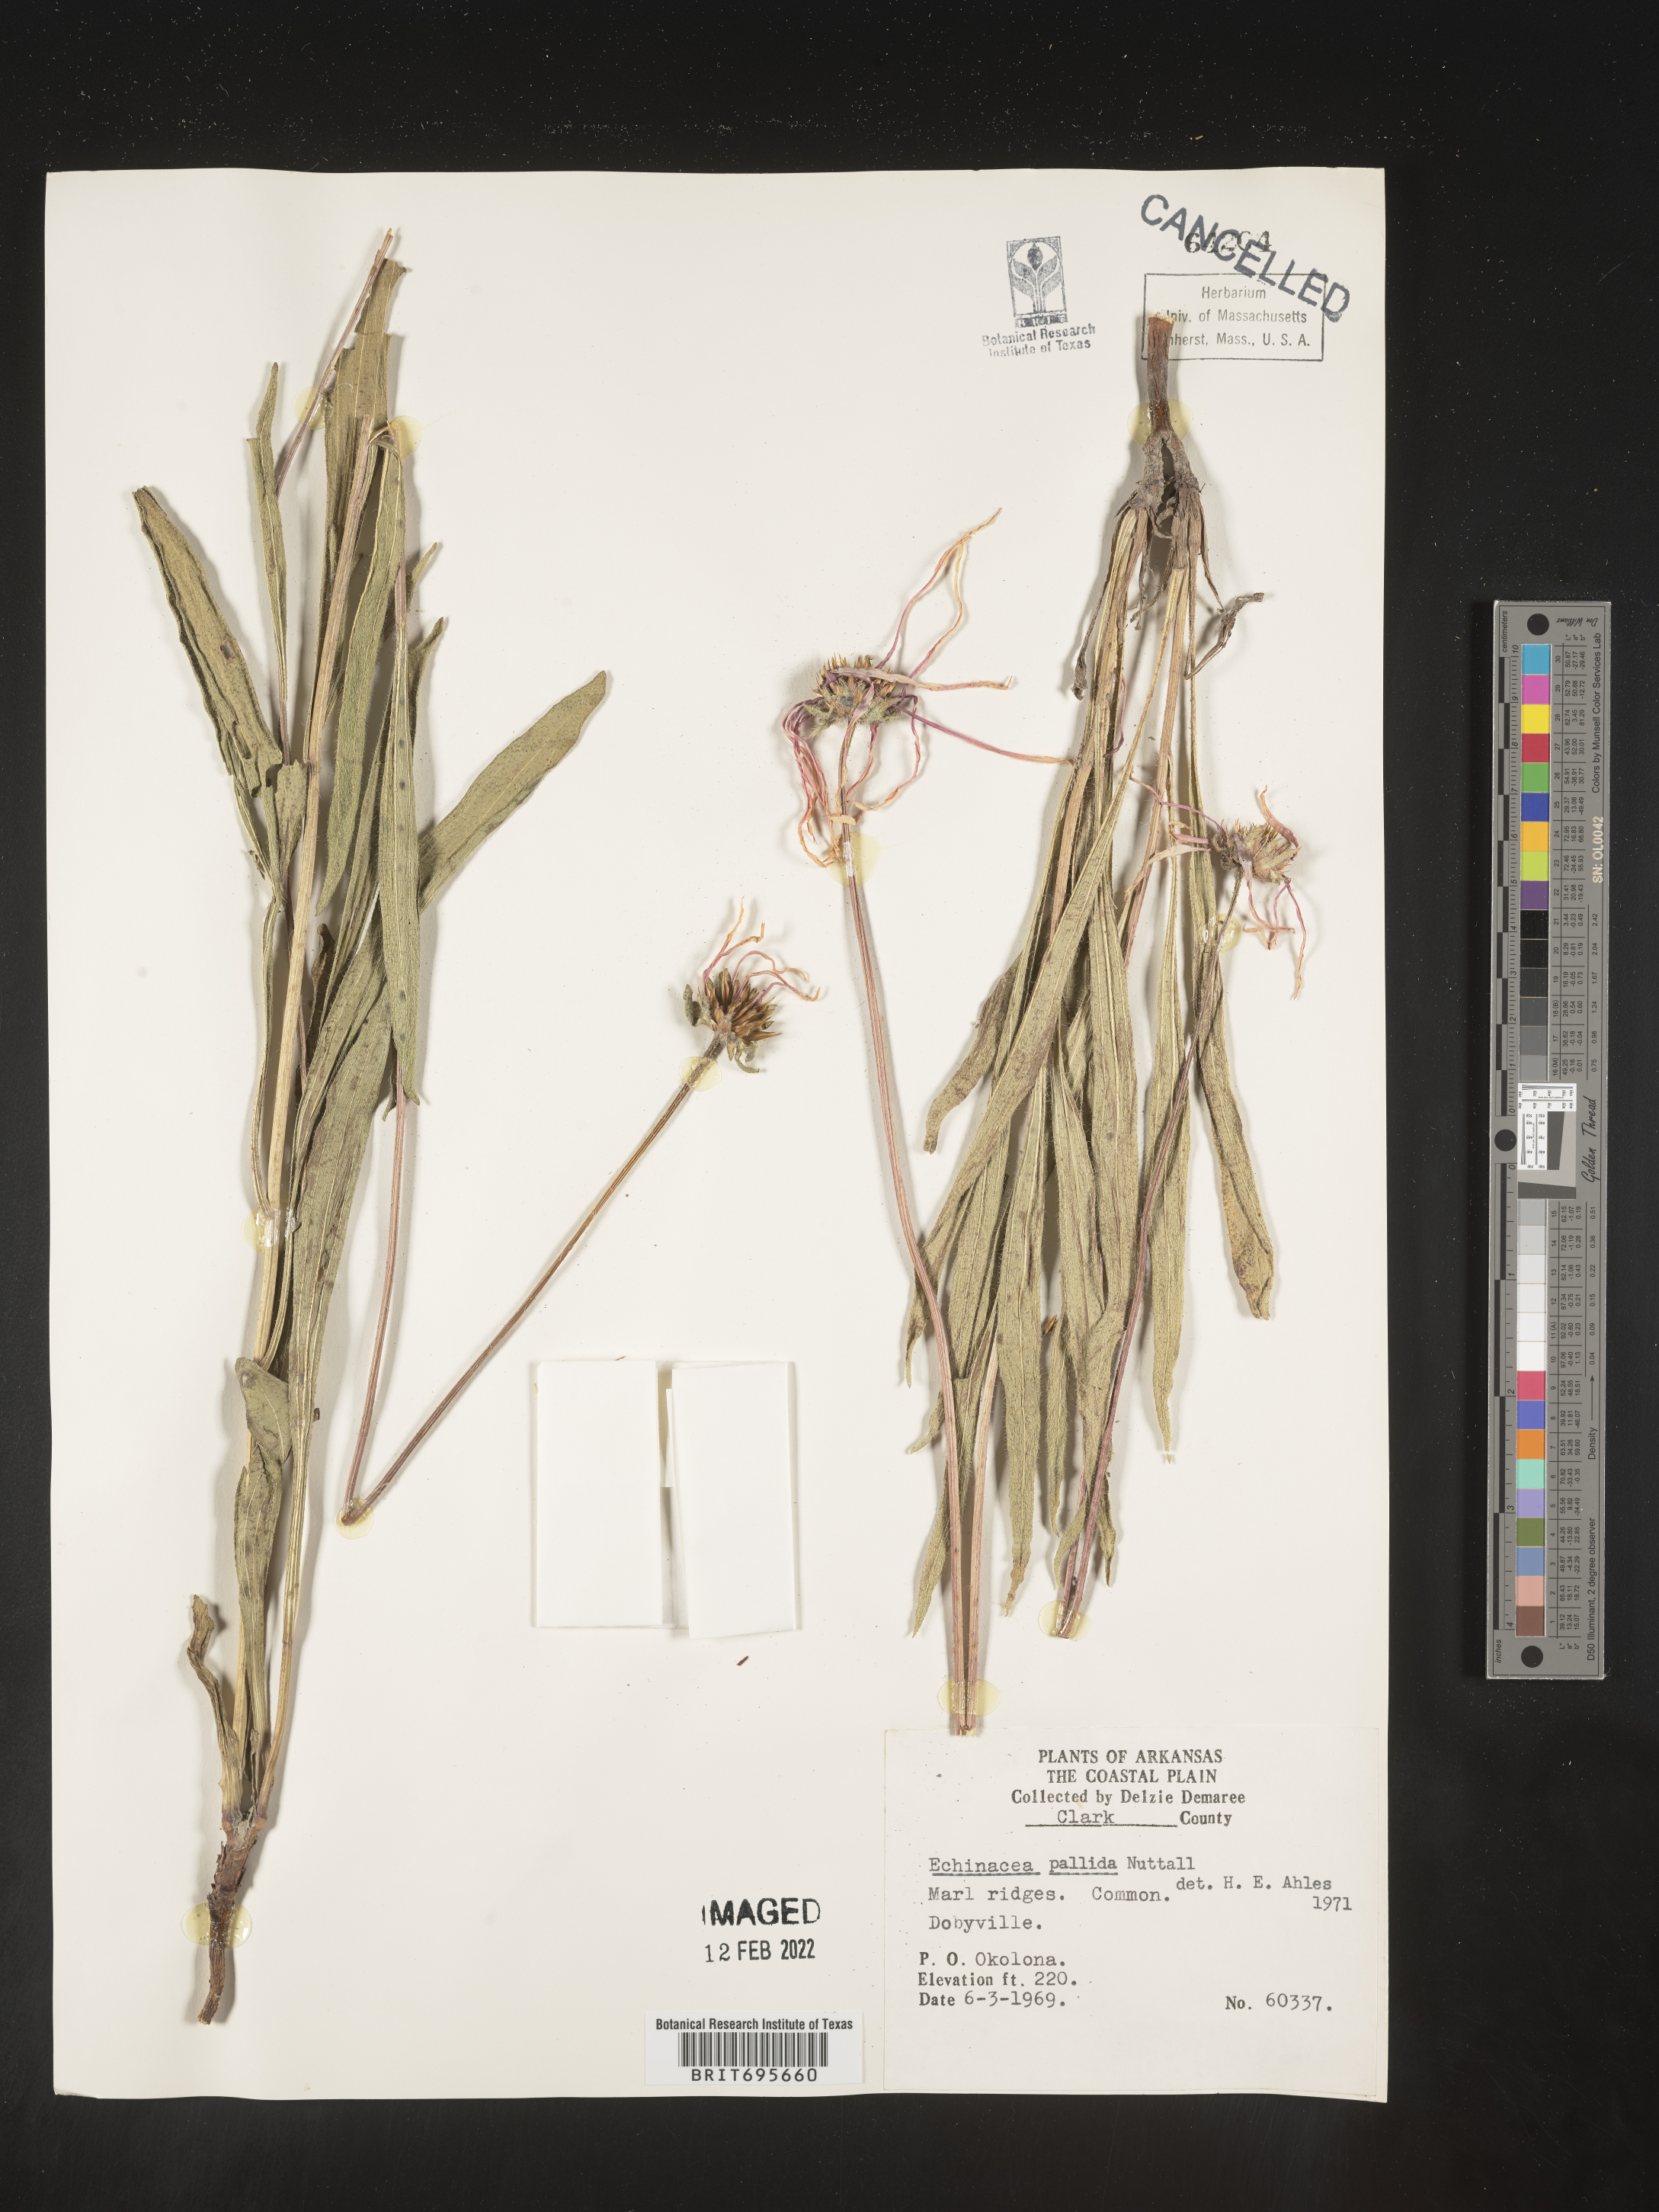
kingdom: Plantae
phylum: Tracheophyta
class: Magnoliopsida
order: Asterales
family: Asteraceae
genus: Echinacea
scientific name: Echinacea pallida
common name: Pale echinacea
